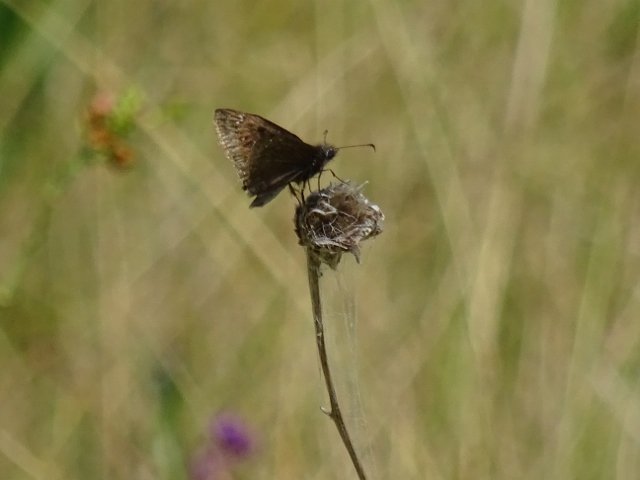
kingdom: Animalia
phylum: Arthropoda
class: Insecta
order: Lepidoptera
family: Hesperiidae
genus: Gesta
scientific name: Gesta
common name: Columbine Duskywing
